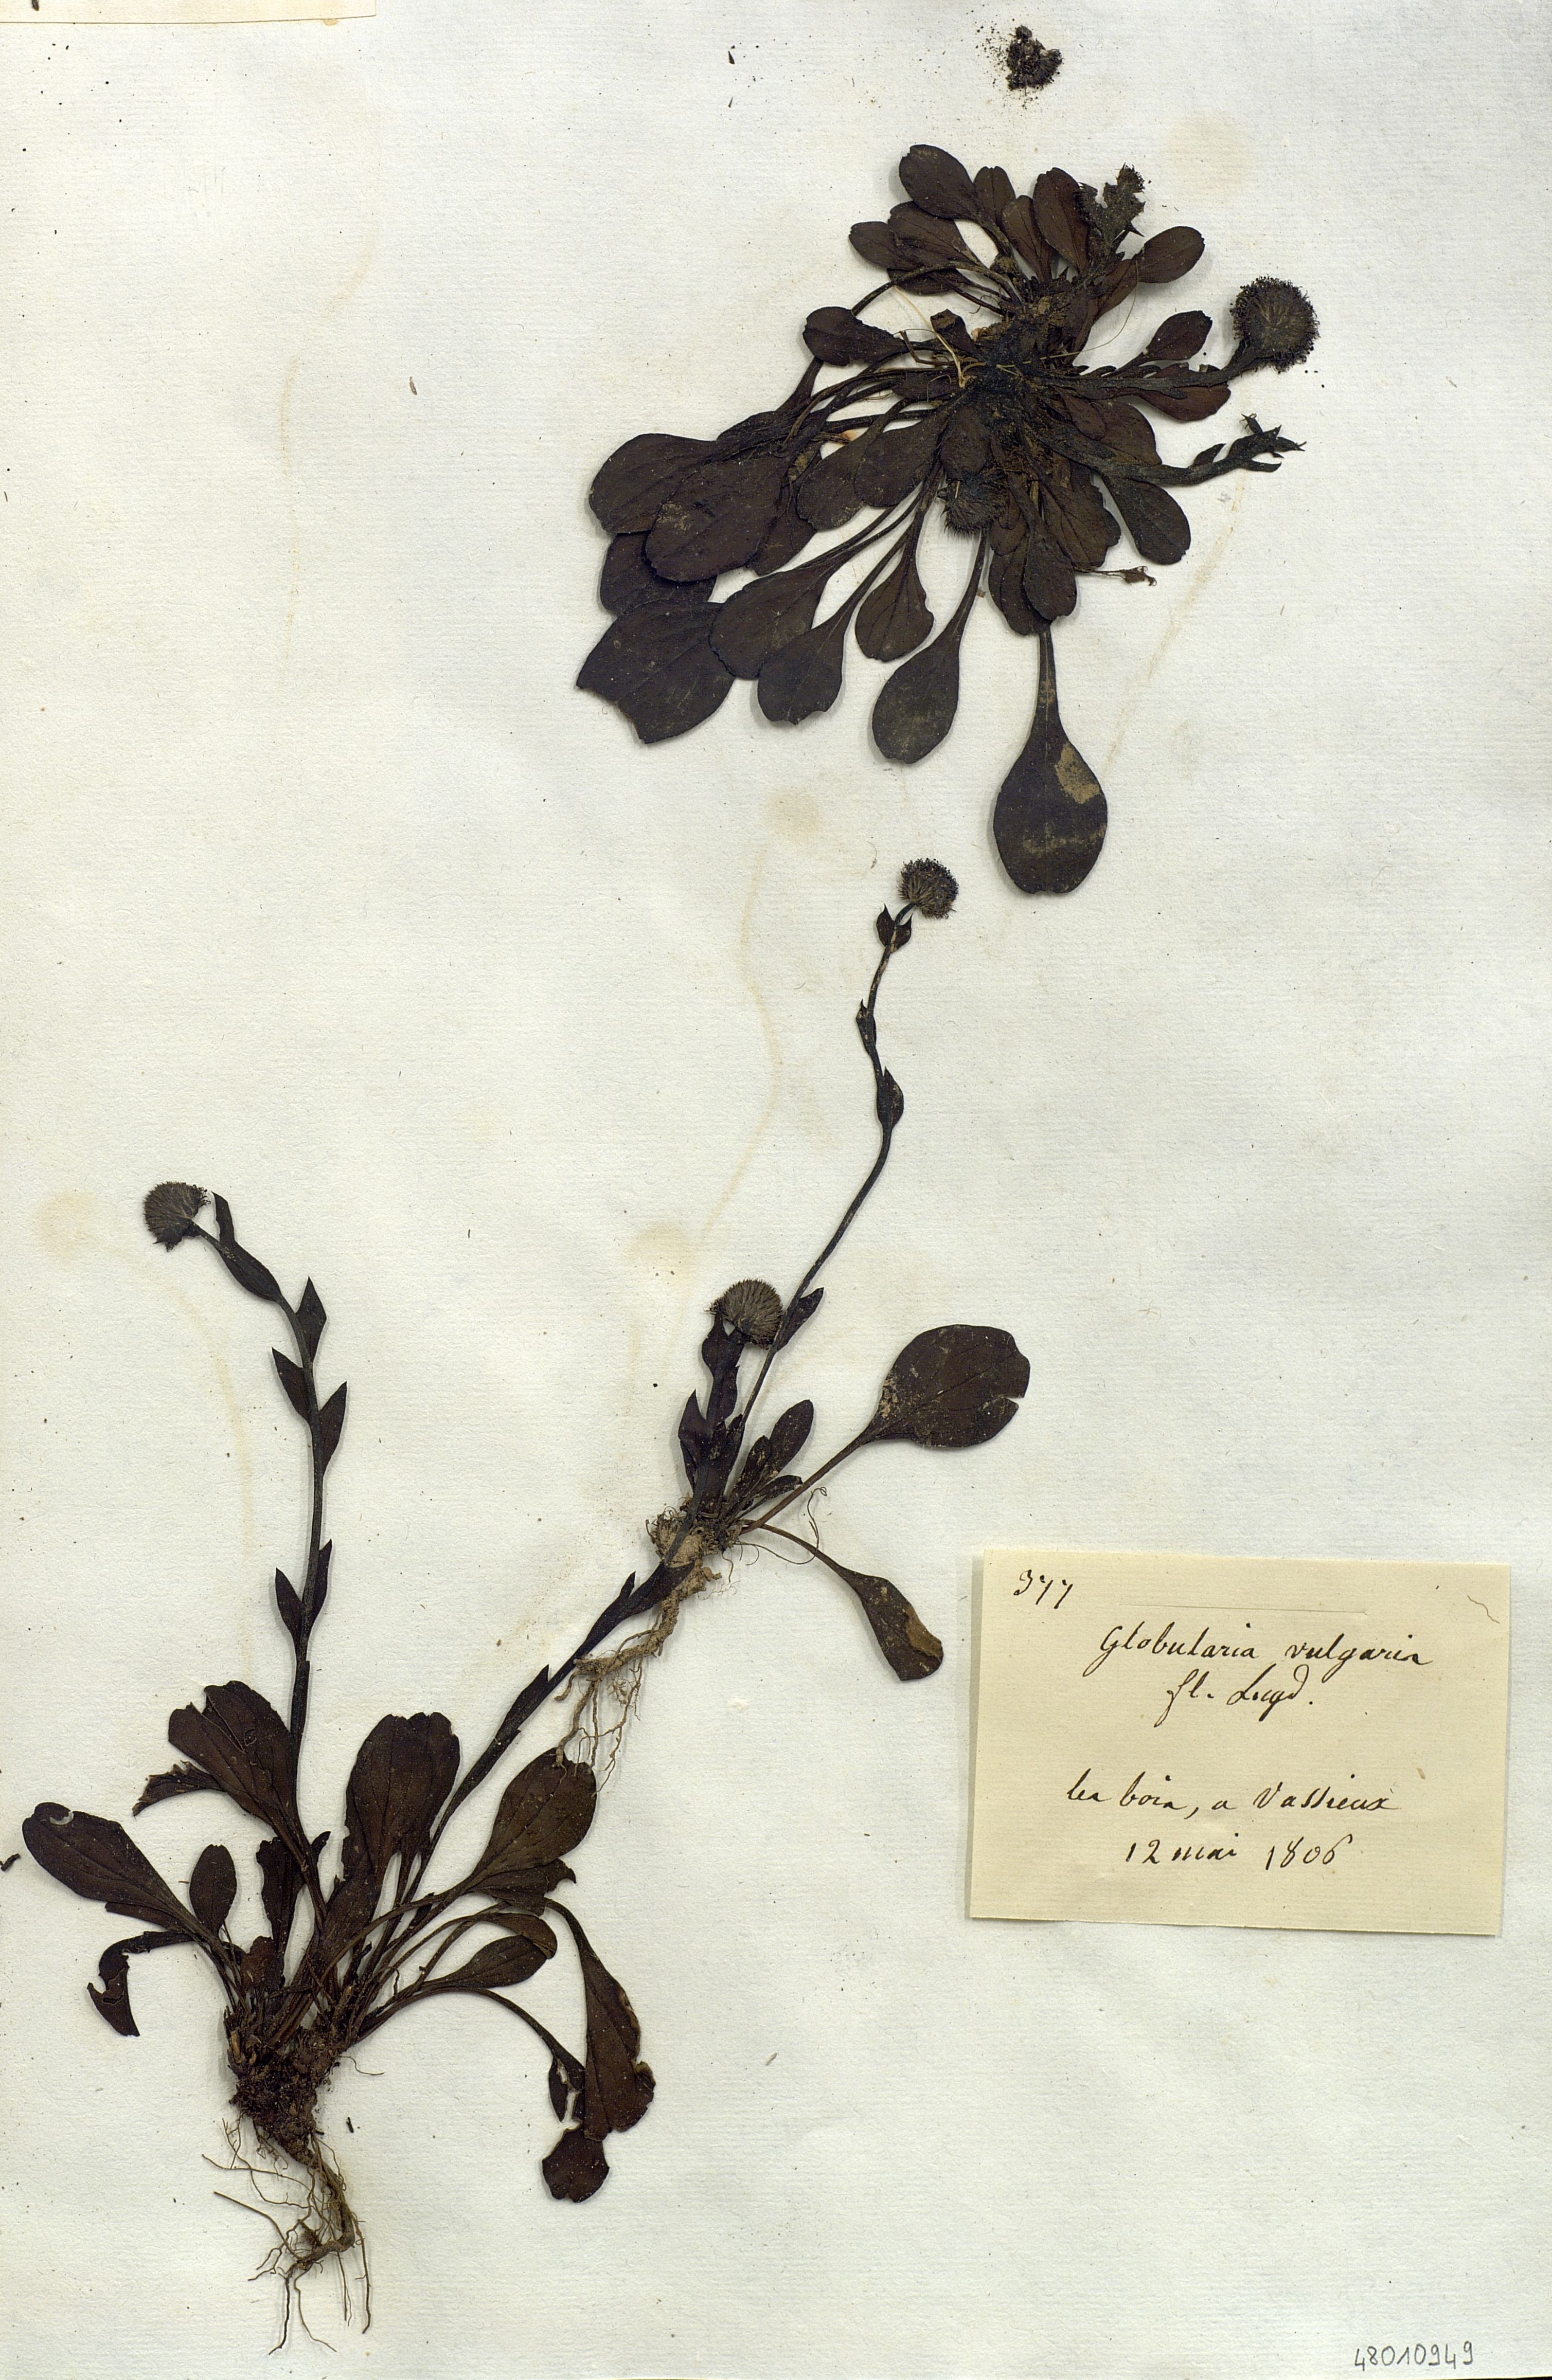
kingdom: Plantae
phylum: Tracheophyta
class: Magnoliopsida
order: Lamiales
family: Plantaginaceae
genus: Globularia
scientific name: Globularia vulgaris
